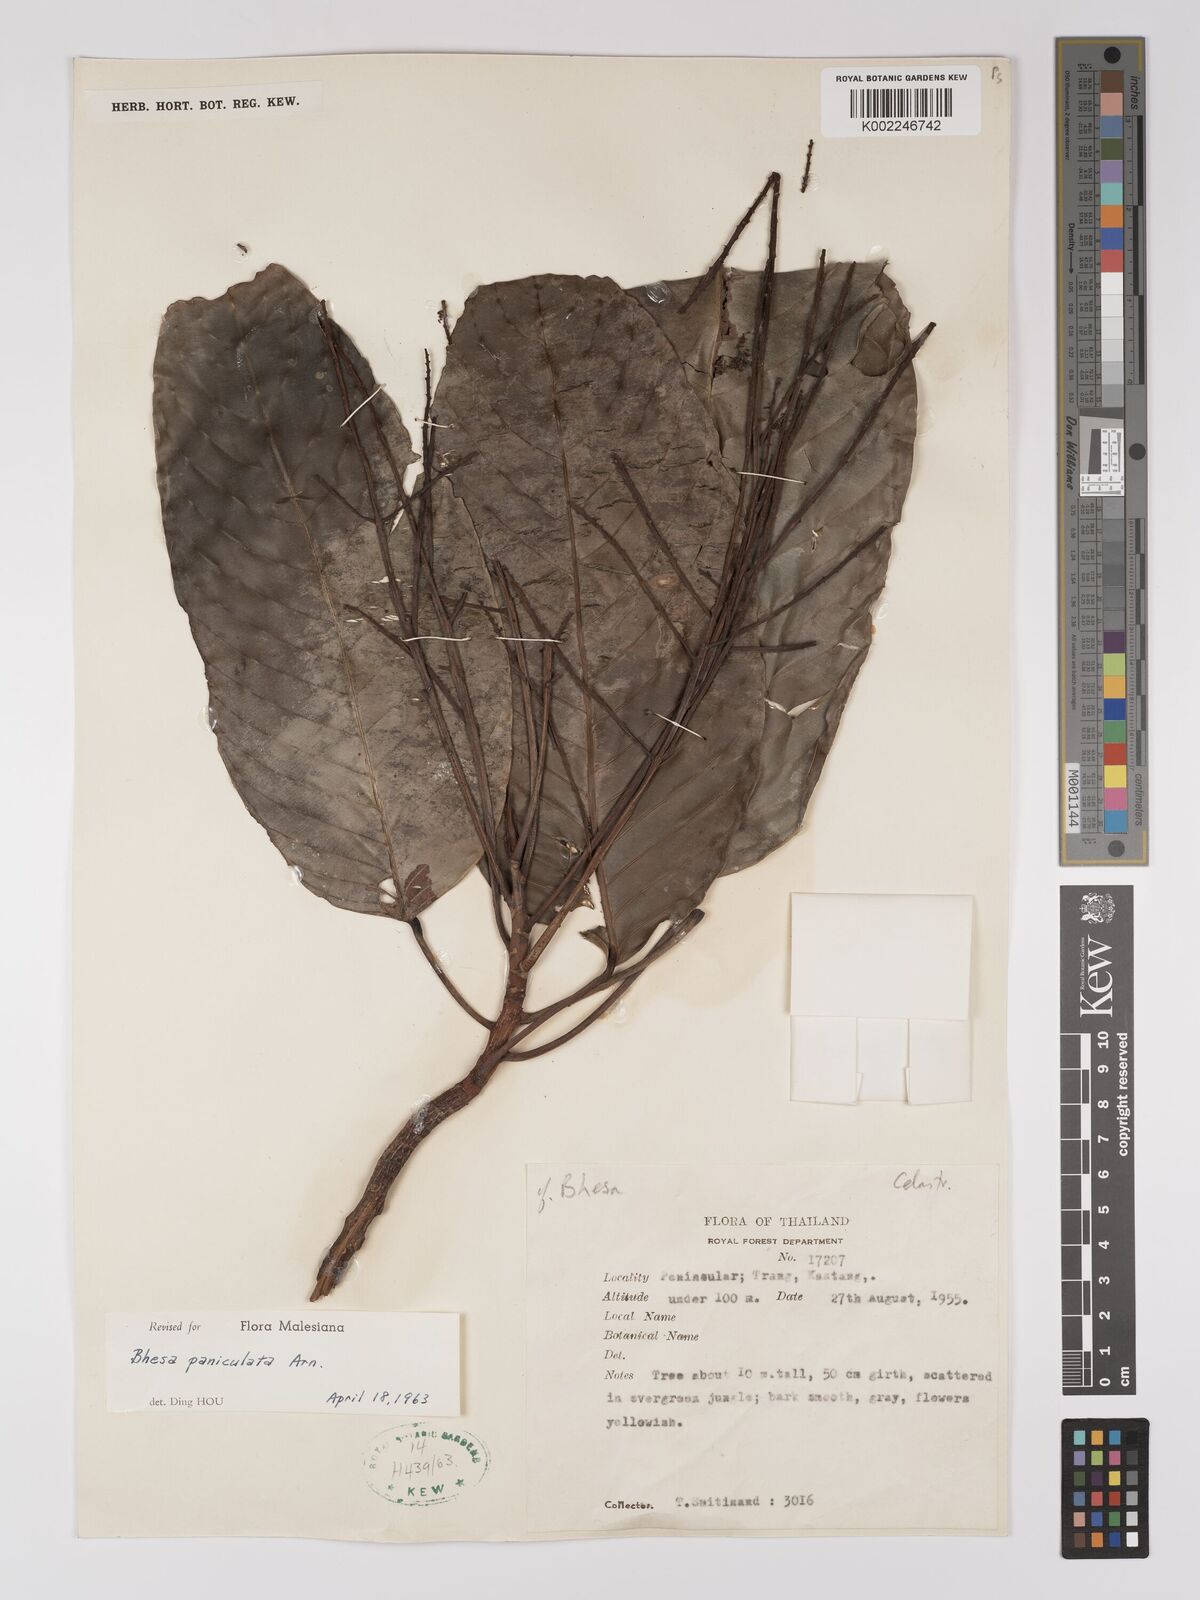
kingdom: Plantae
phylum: Tracheophyta
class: Magnoliopsida
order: Malpighiales
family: Centroplacaceae
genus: Bhesa
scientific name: Bhesa indica
